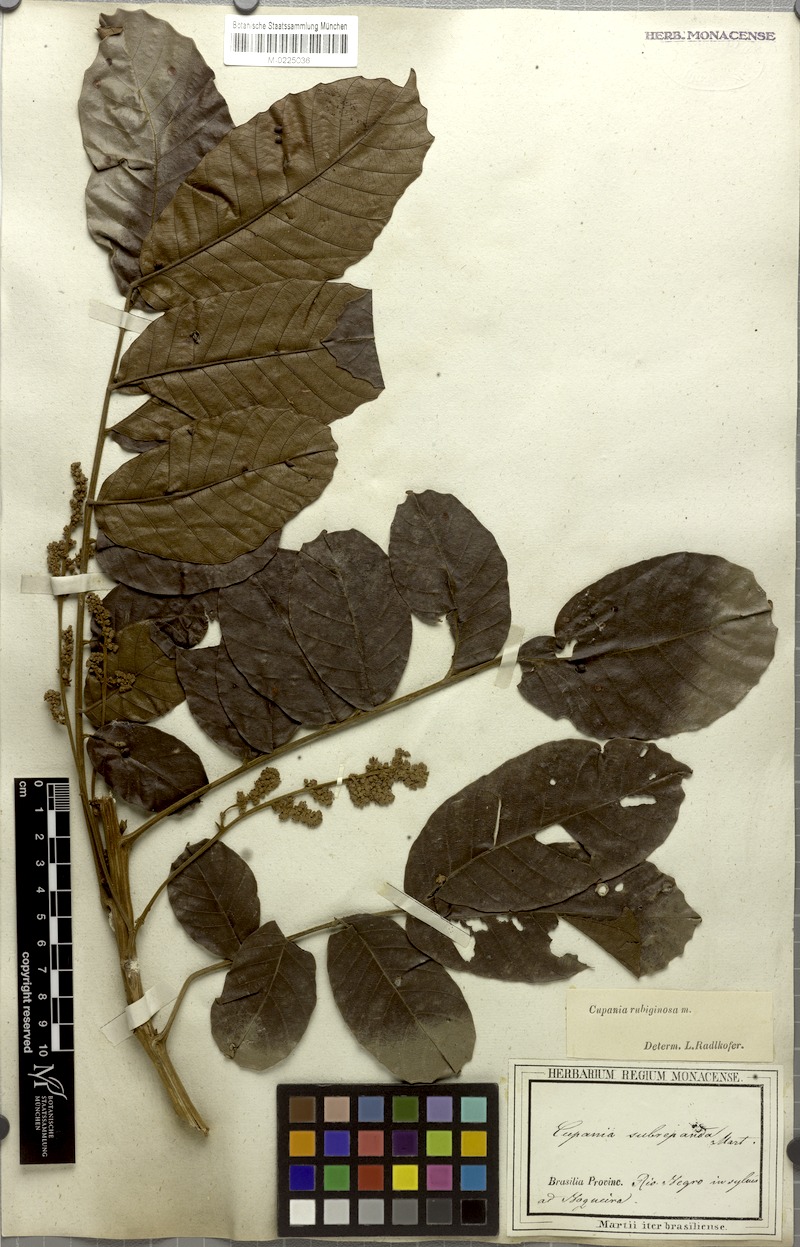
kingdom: Plantae
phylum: Tracheophyta
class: Magnoliopsida
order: Sapindales
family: Sapindaceae
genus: Cupania
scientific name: Cupania rubiginosa
